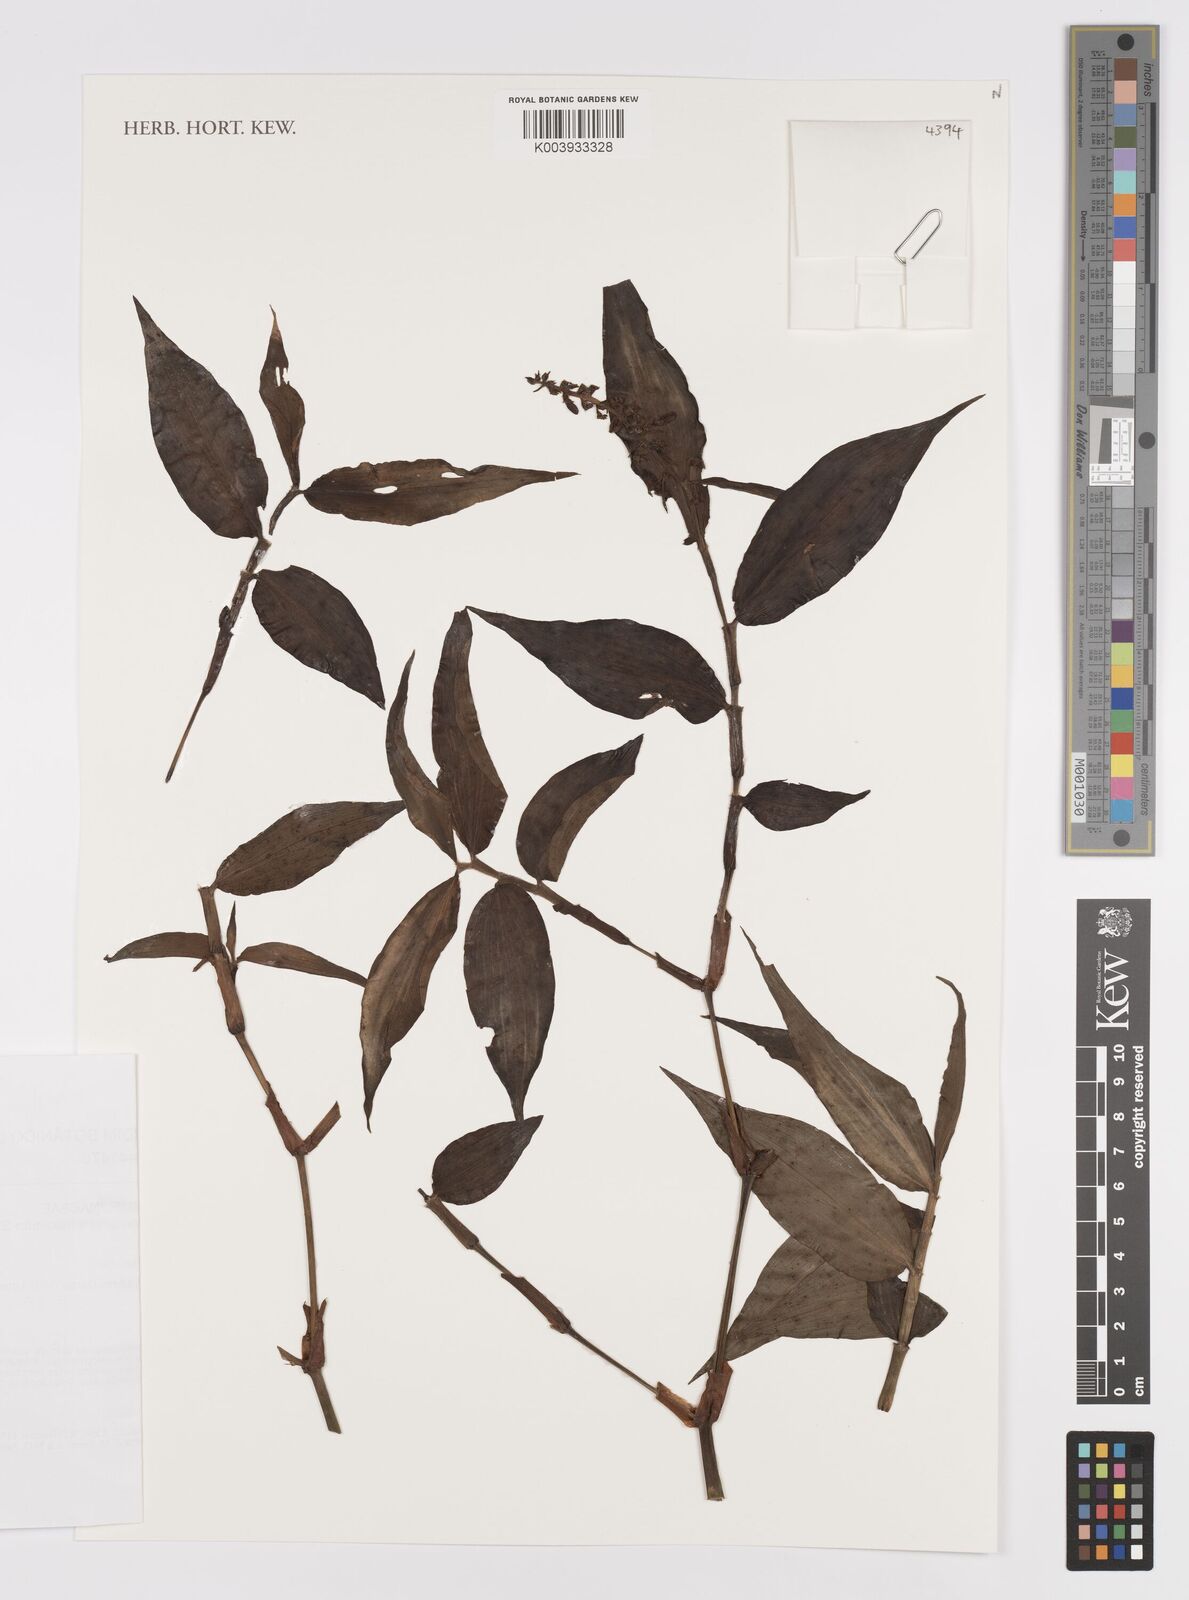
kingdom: Plantae
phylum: Tracheophyta
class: Liliopsida
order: Commelinales
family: Commelinaceae
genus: Dichorisandra
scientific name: Dichorisandra
